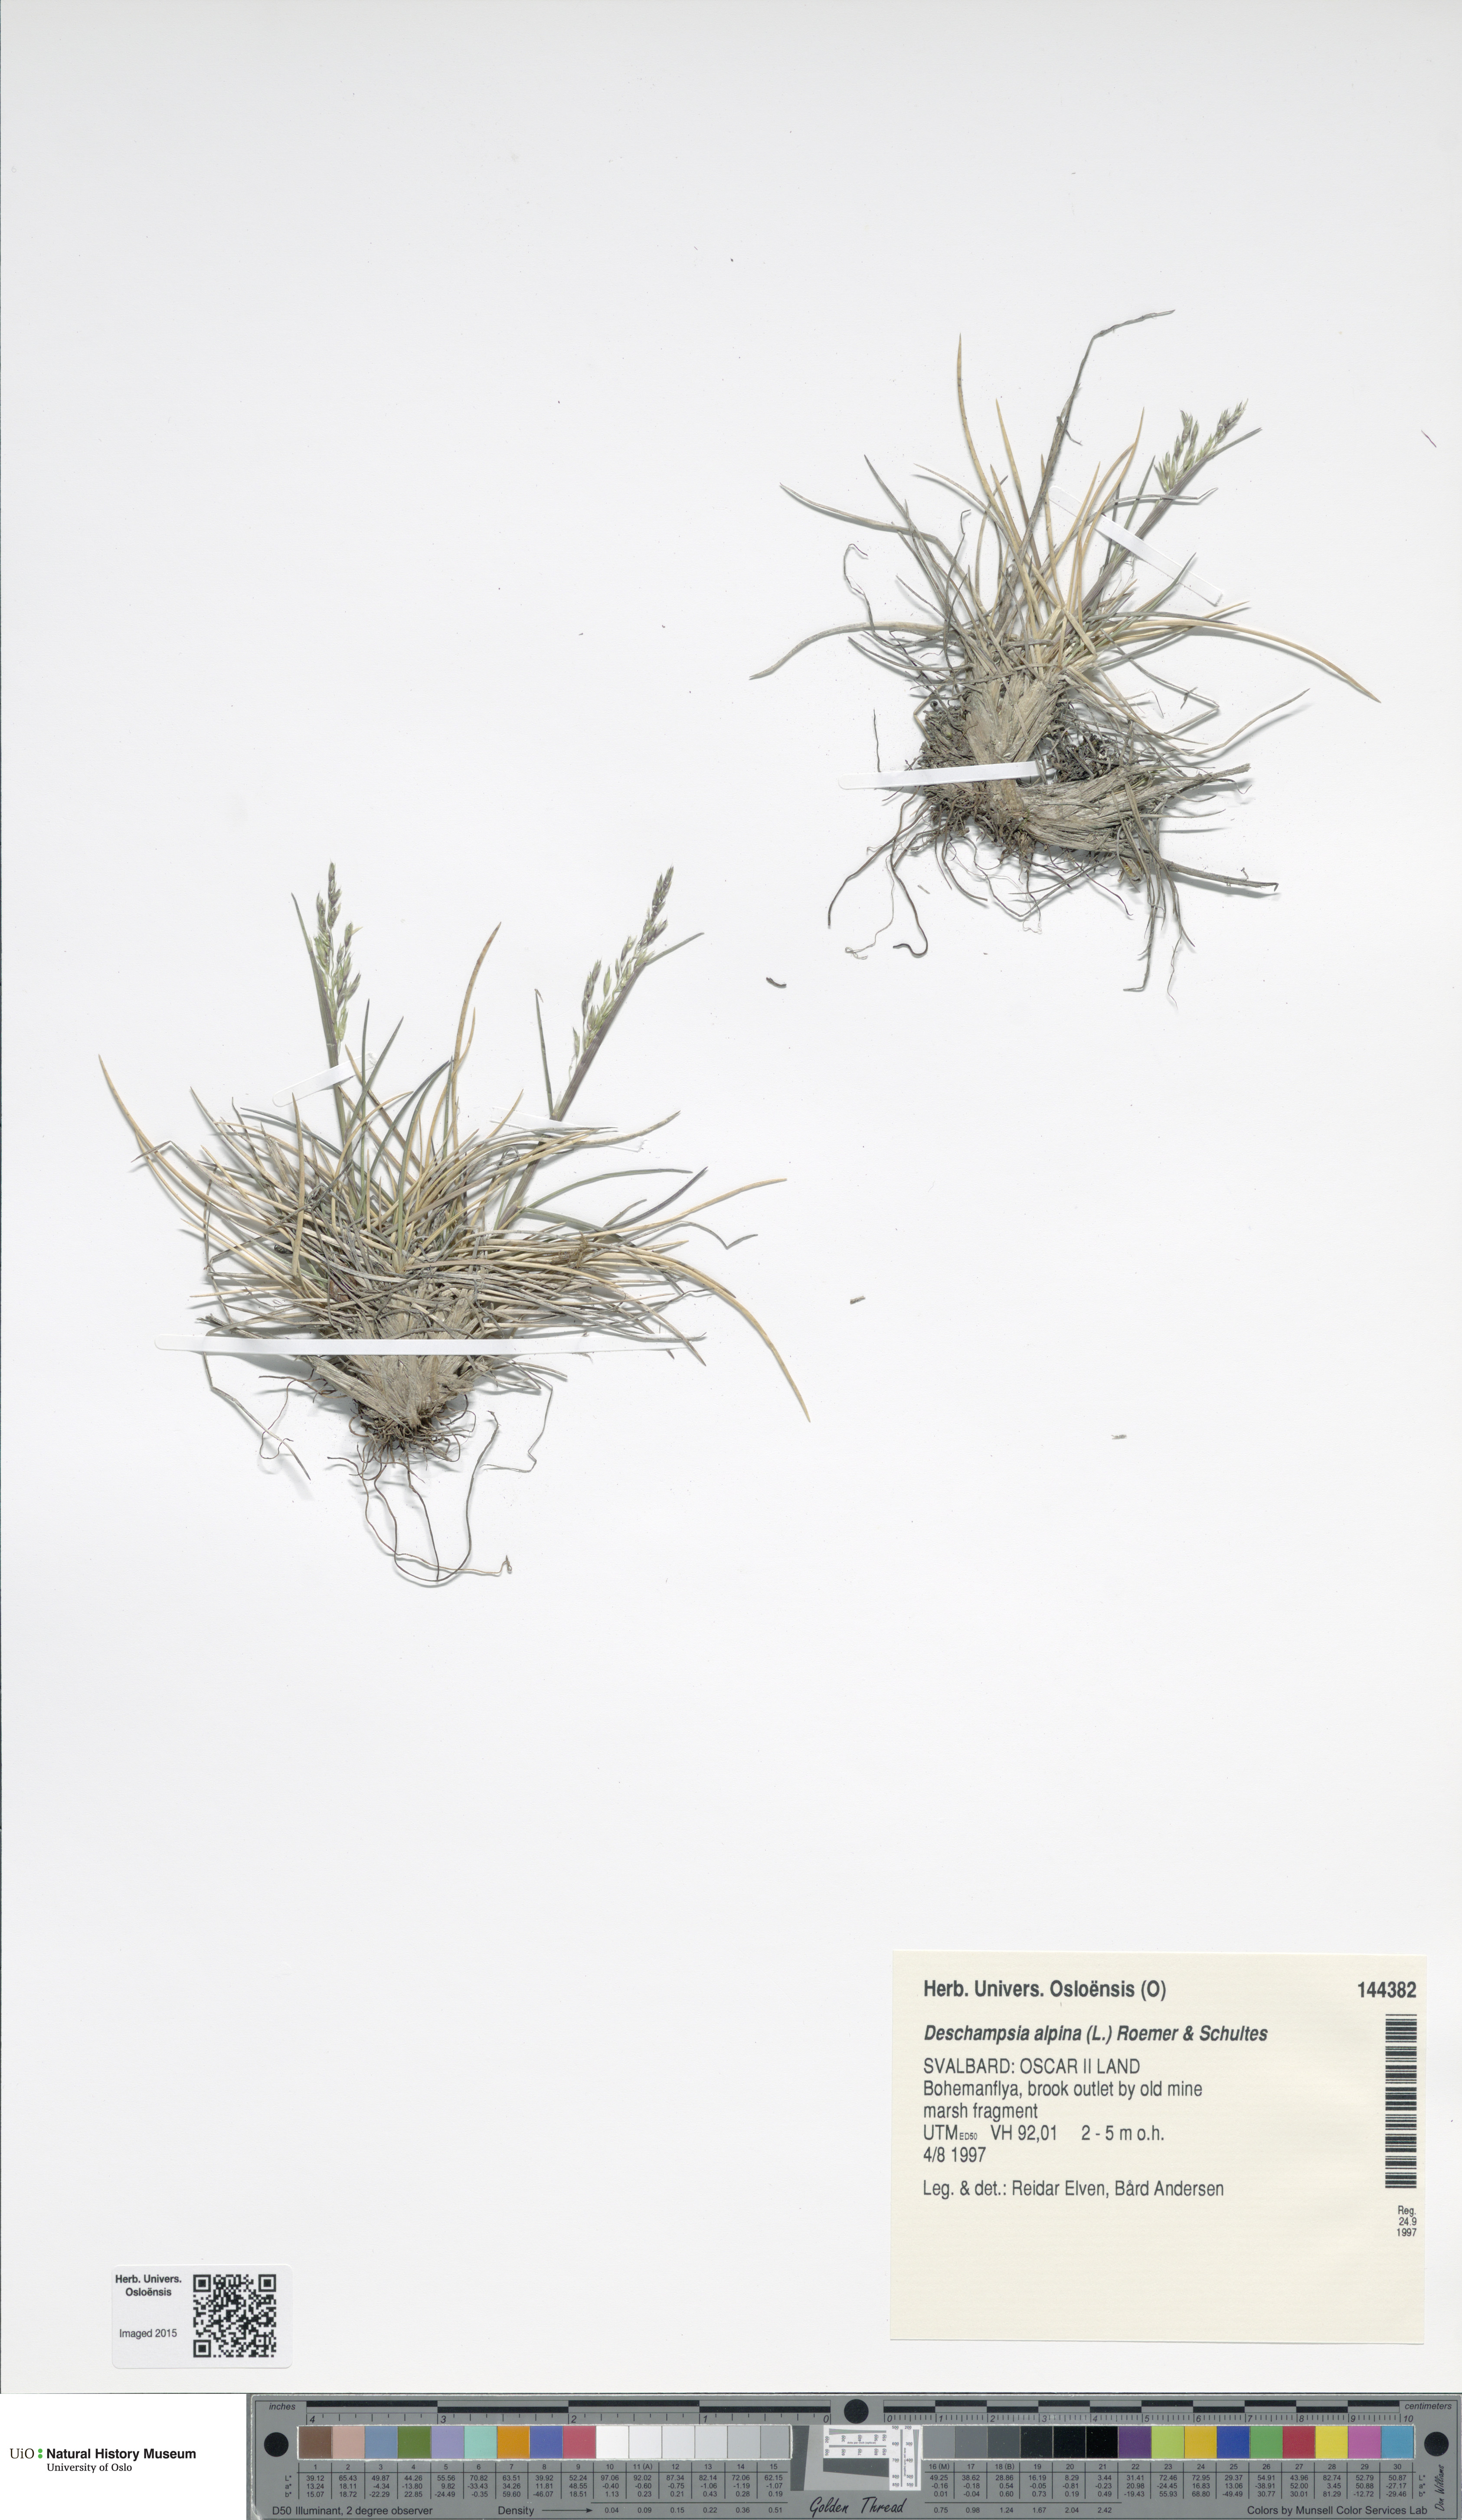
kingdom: Plantae
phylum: Tracheophyta
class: Liliopsida
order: Poales
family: Poaceae
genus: Deschampsia
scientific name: Deschampsia cespitosa
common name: Tufted hair-grass
